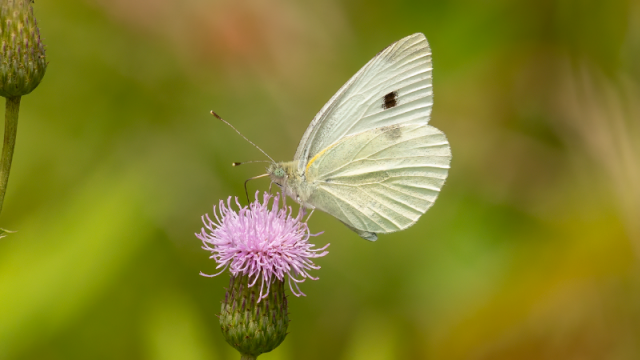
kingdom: Animalia
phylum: Arthropoda
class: Insecta
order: Lepidoptera
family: Pieridae
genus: Pieris
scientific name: Pieris rapae
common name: Cabbage White
